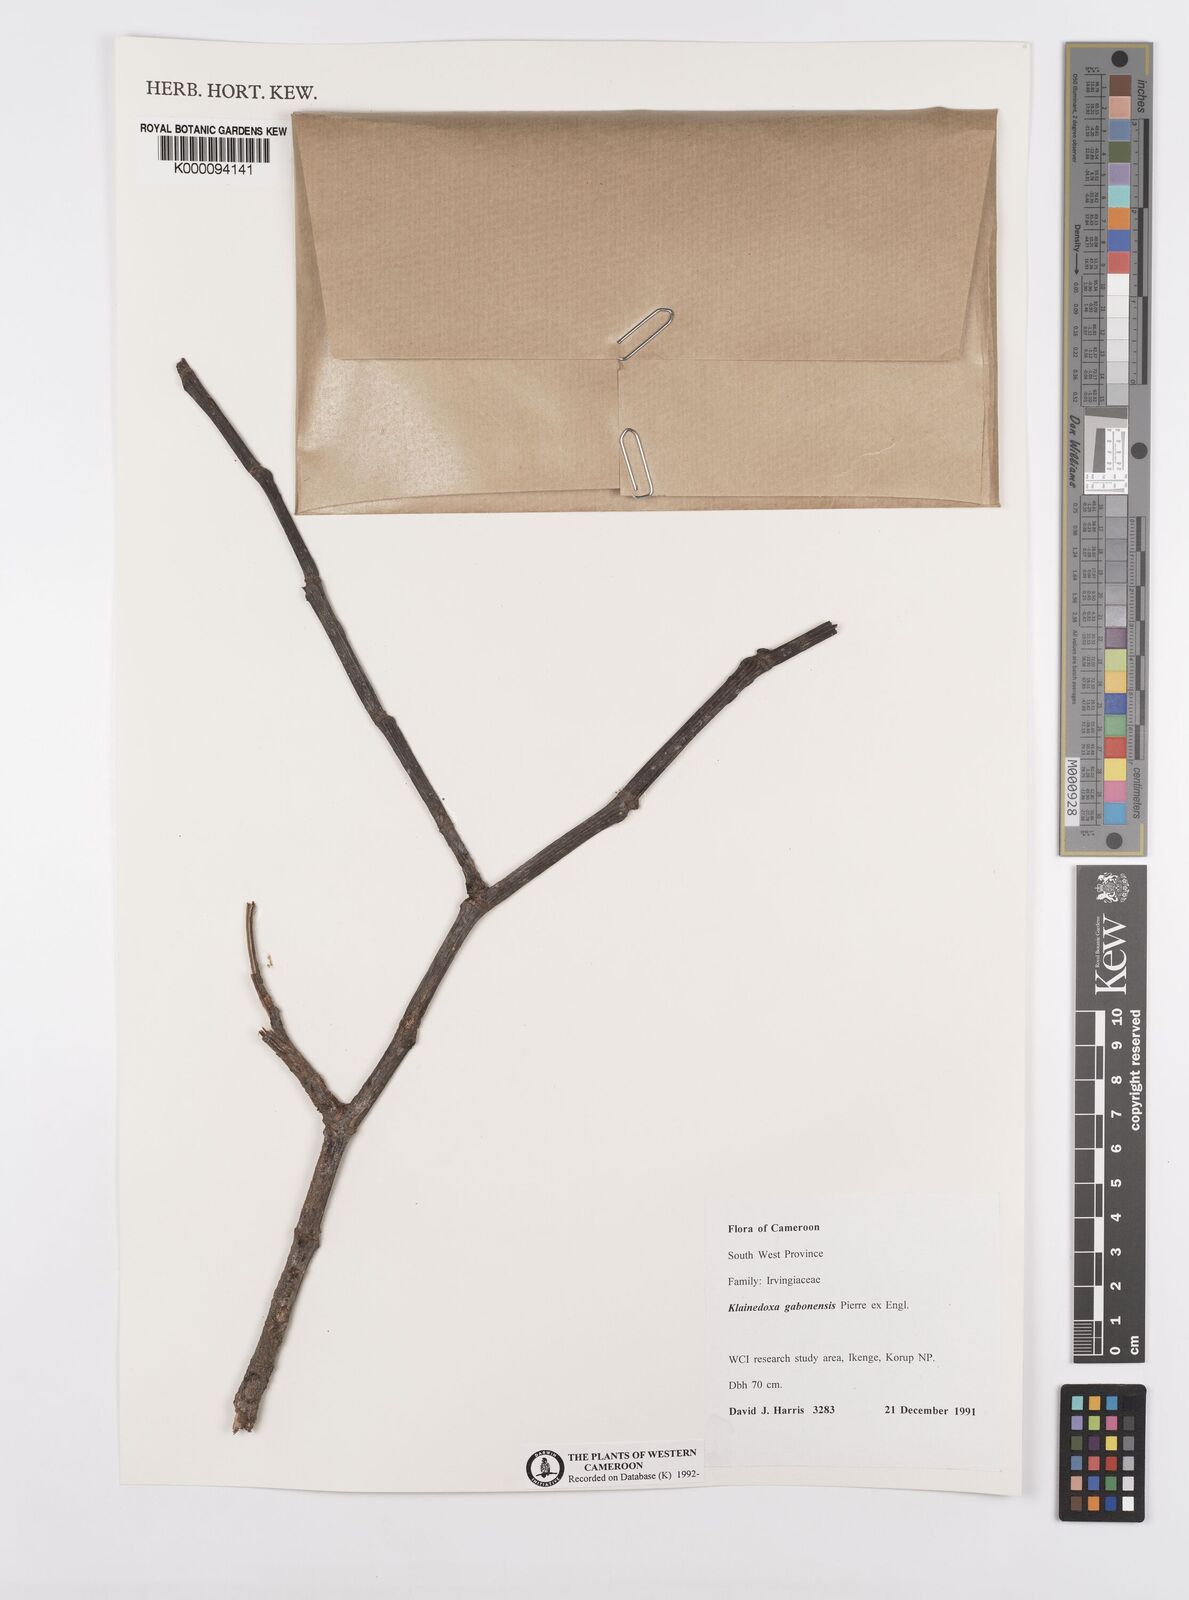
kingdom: Plantae
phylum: Tracheophyta
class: Magnoliopsida
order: Malpighiales
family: Irvingiaceae
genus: Klainedoxa
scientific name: Klainedoxa gabonensis
